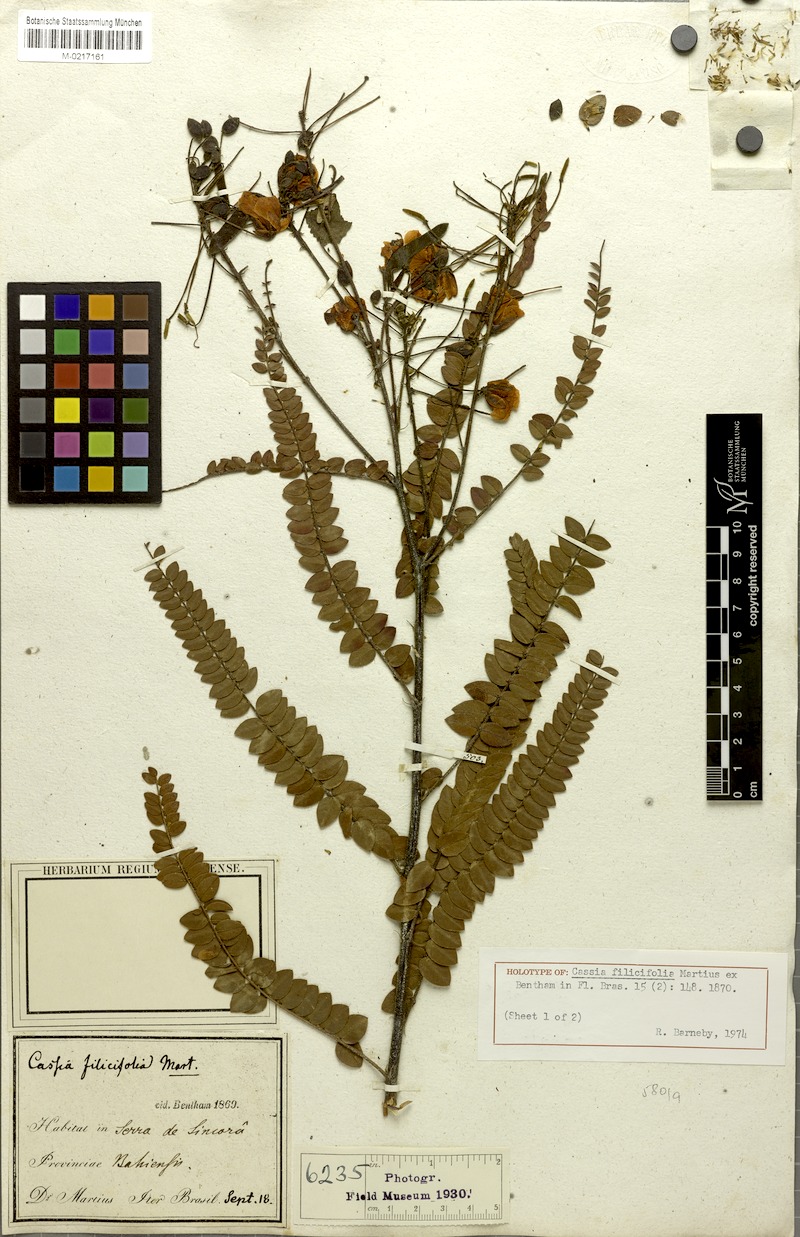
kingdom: Plantae
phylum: Tracheophyta
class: Magnoliopsida
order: Fabales
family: Fabaceae
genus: Chamaecrista
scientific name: Chamaecrista filicifolia
